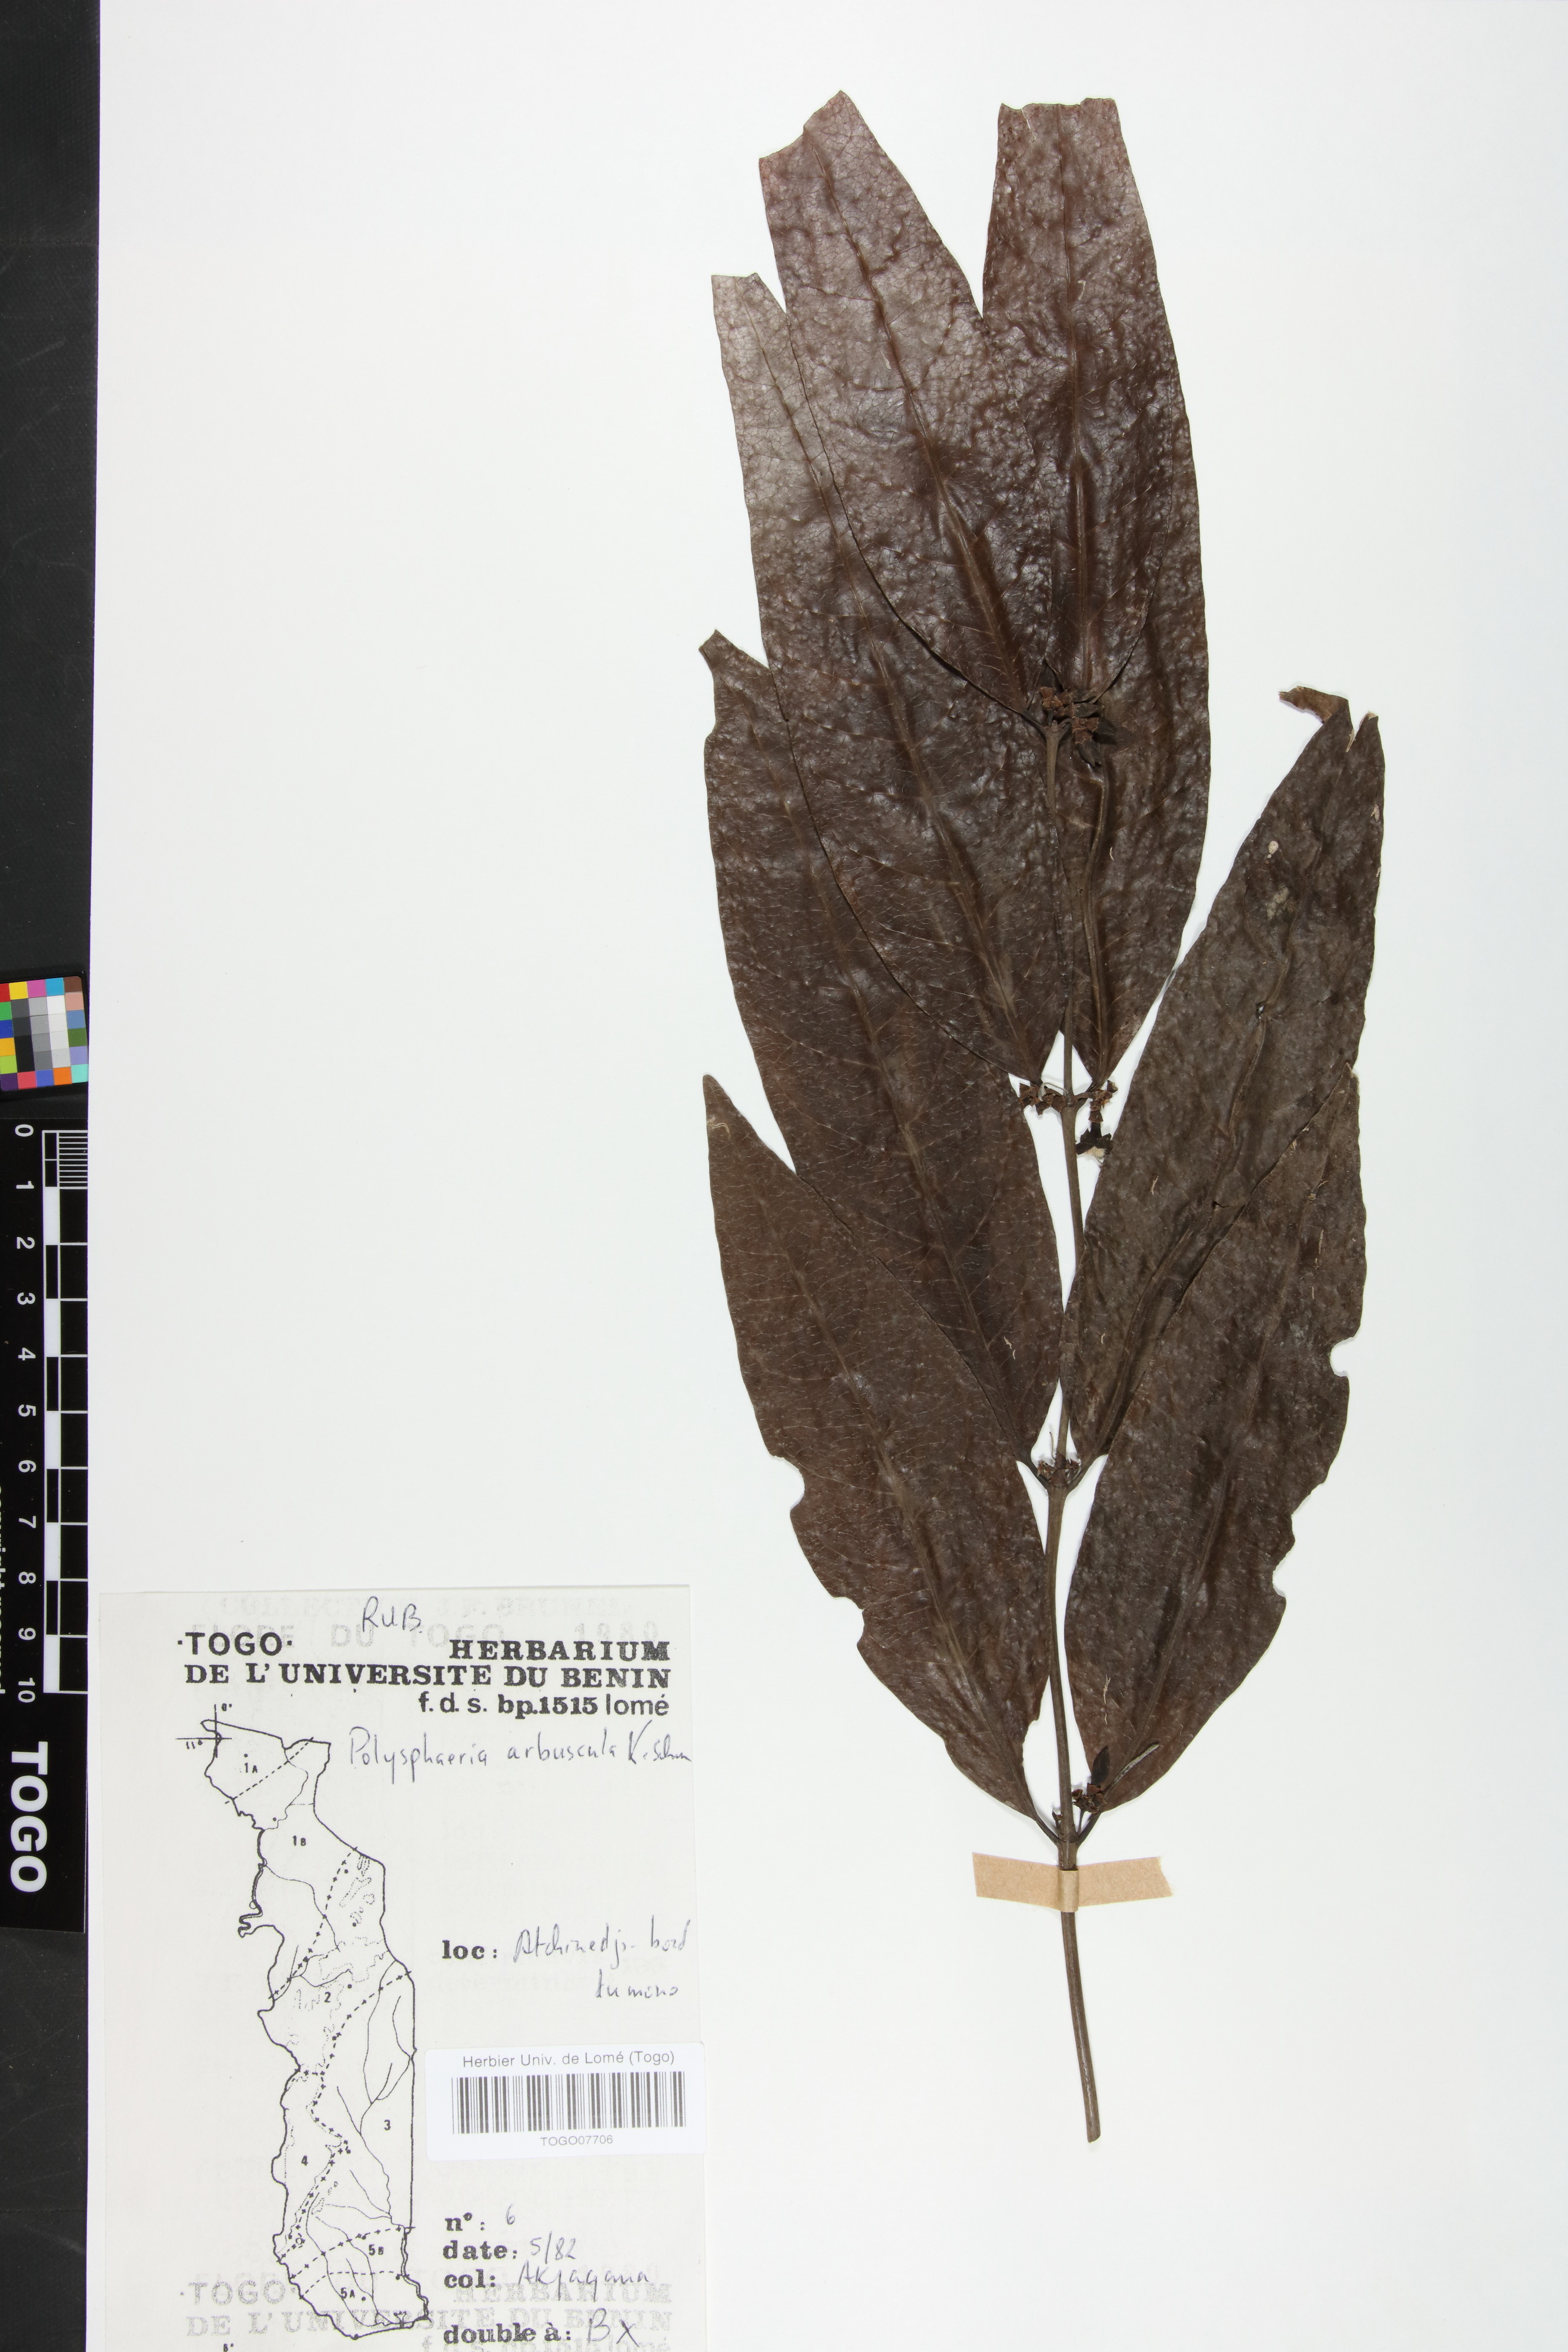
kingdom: Plantae
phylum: Tracheophyta
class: Magnoliopsida
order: Gentianales
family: Rubiaceae
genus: Polysphaeria
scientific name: Polysphaeria arbuscula
